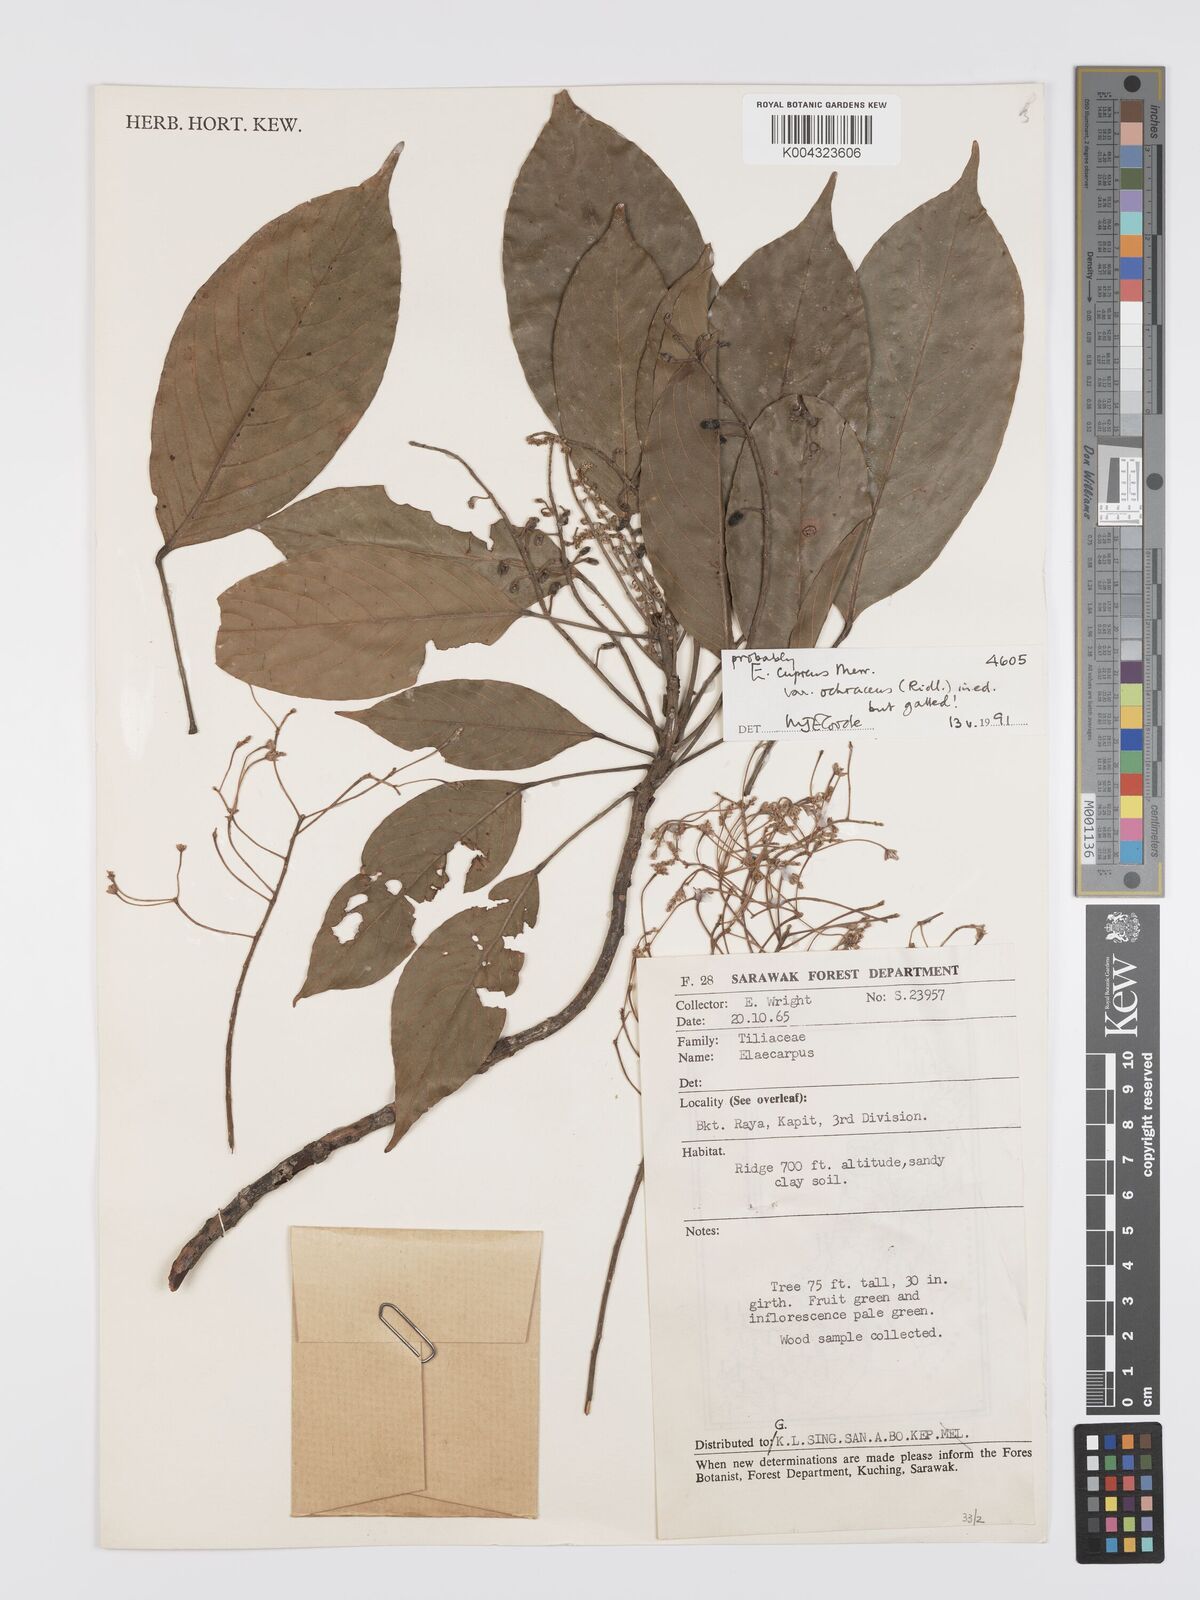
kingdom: Plantae
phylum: Tracheophyta
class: Magnoliopsida
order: Oxalidales
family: Elaeocarpaceae
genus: Elaeocarpus
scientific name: Elaeocarpus cupreus
